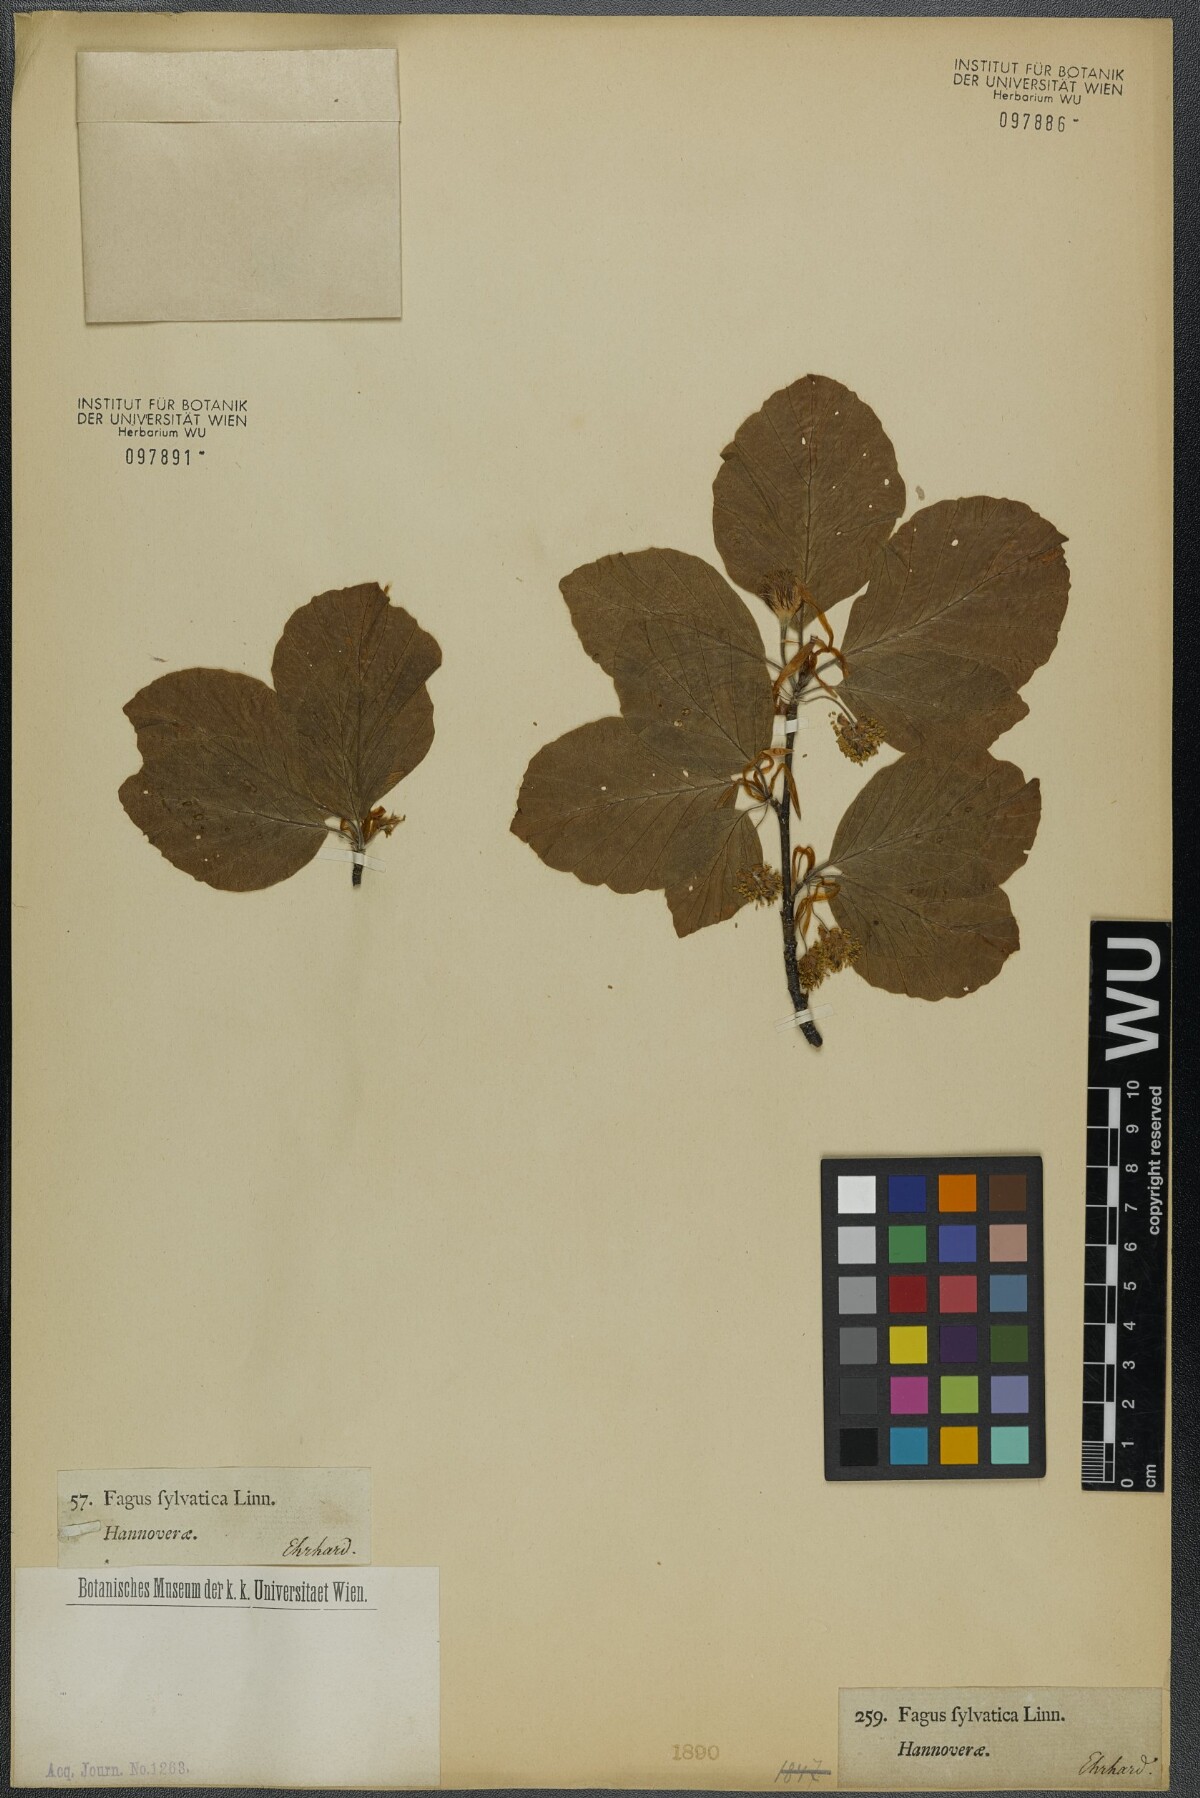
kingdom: Plantae
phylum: Tracheophyta
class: Magnoliopsida
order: Fagales
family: Fagaceae
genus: Fagus
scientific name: Fagus sylvatica
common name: Beech
